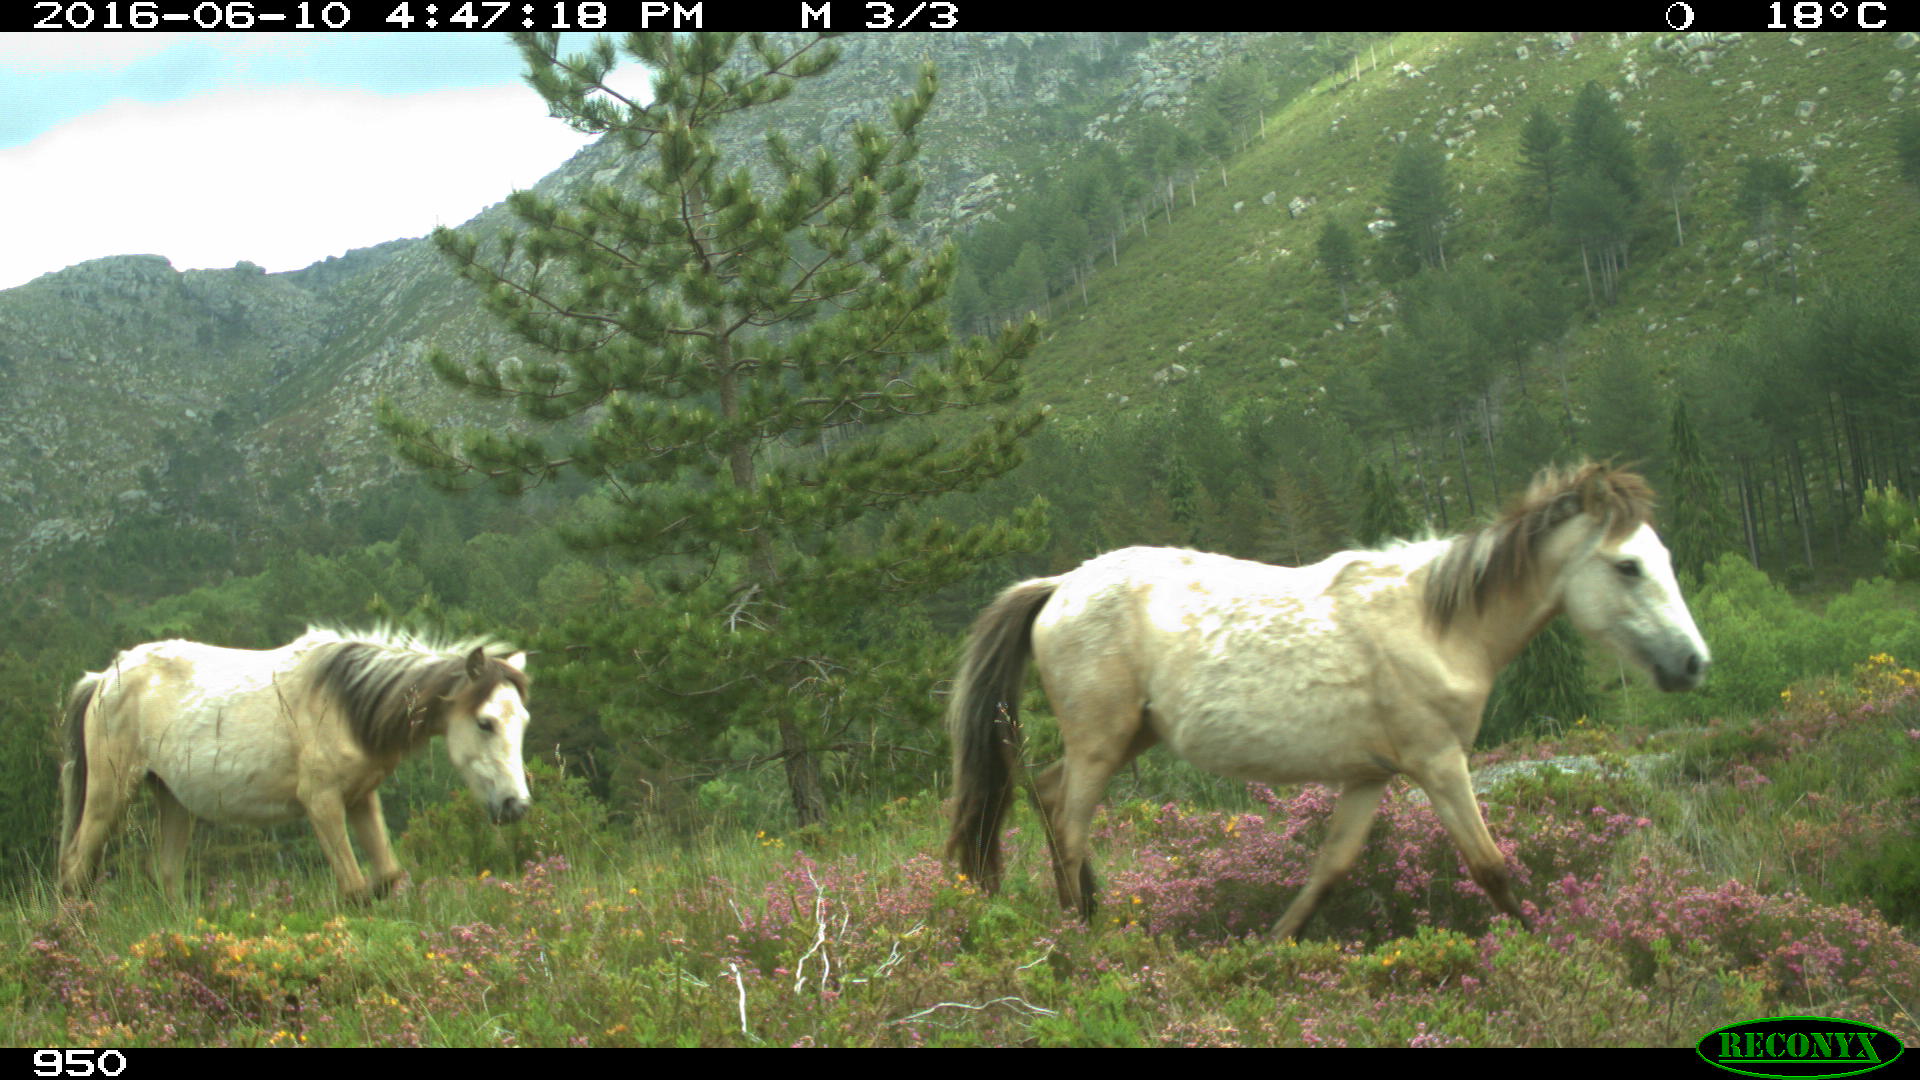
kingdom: Animalia
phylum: Chordata
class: Mammalia
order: Artiodactyla
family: Bovidae
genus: Bos
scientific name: Bos taurus
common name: Domesticated cattle
